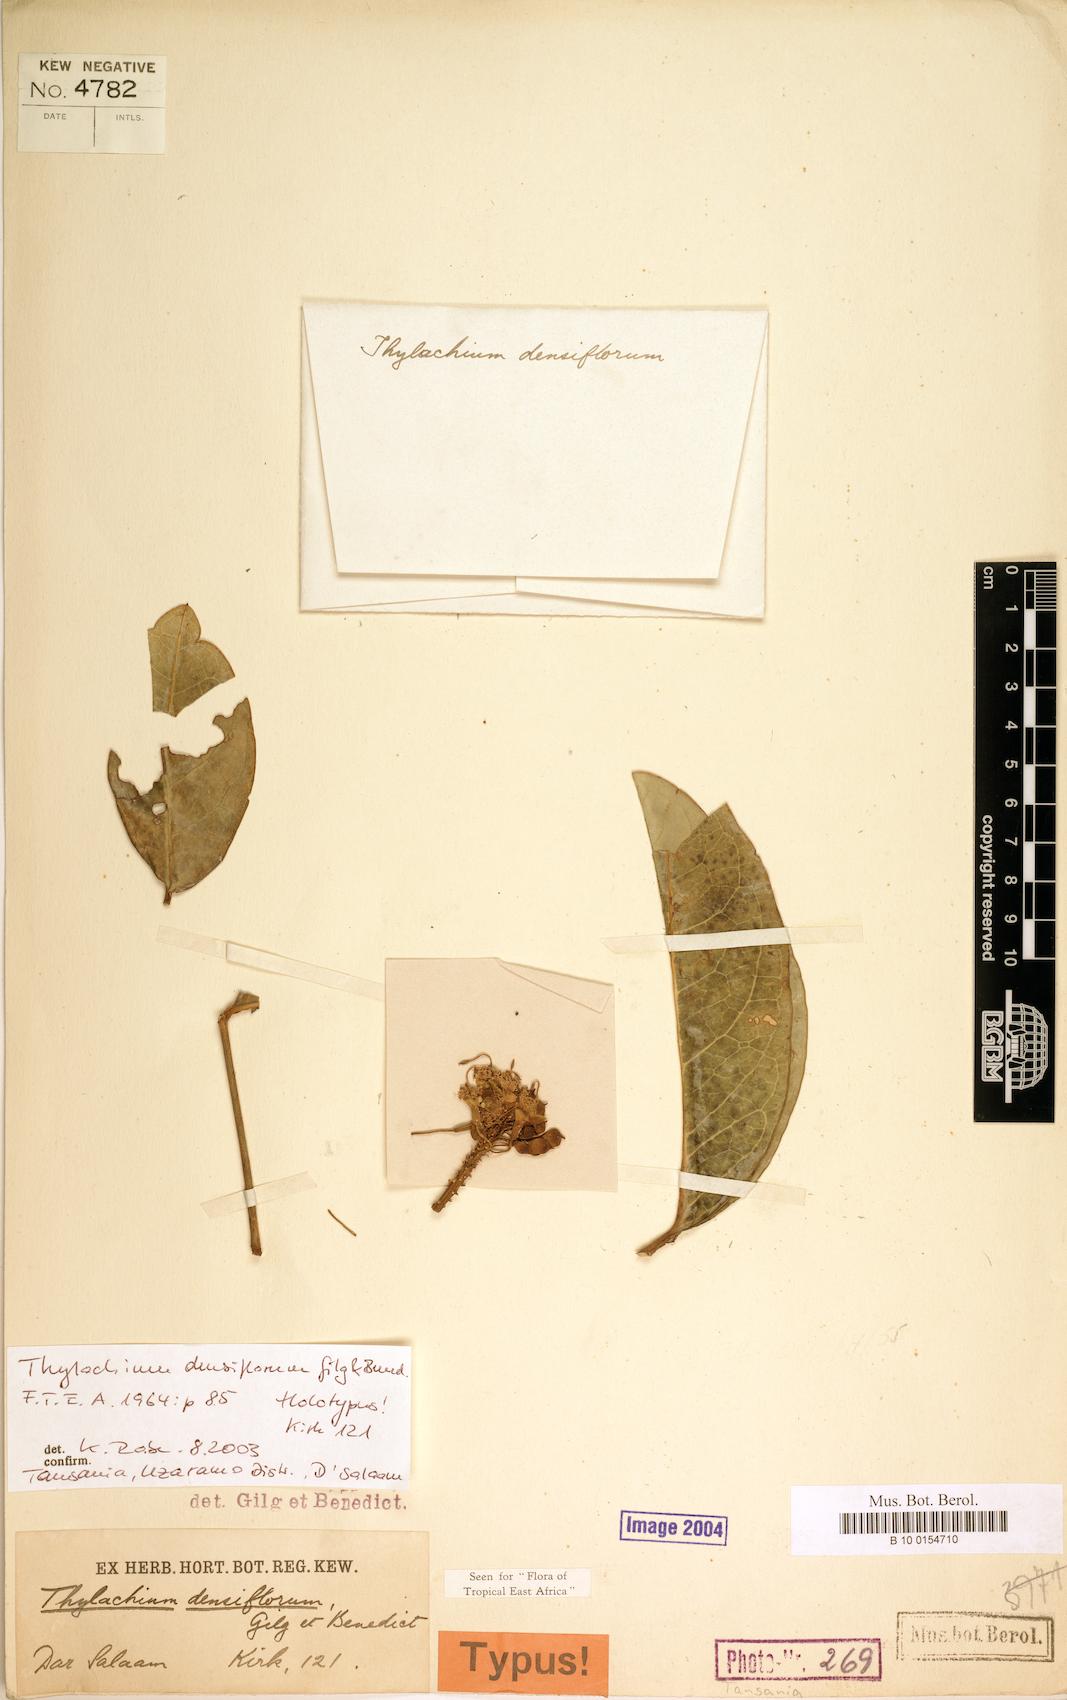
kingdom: Plantae
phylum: Tracheophyta
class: Magnoliopsida
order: Brassicales
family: Capparaceae
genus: Thilachium
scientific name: Thilachium densiflorum
